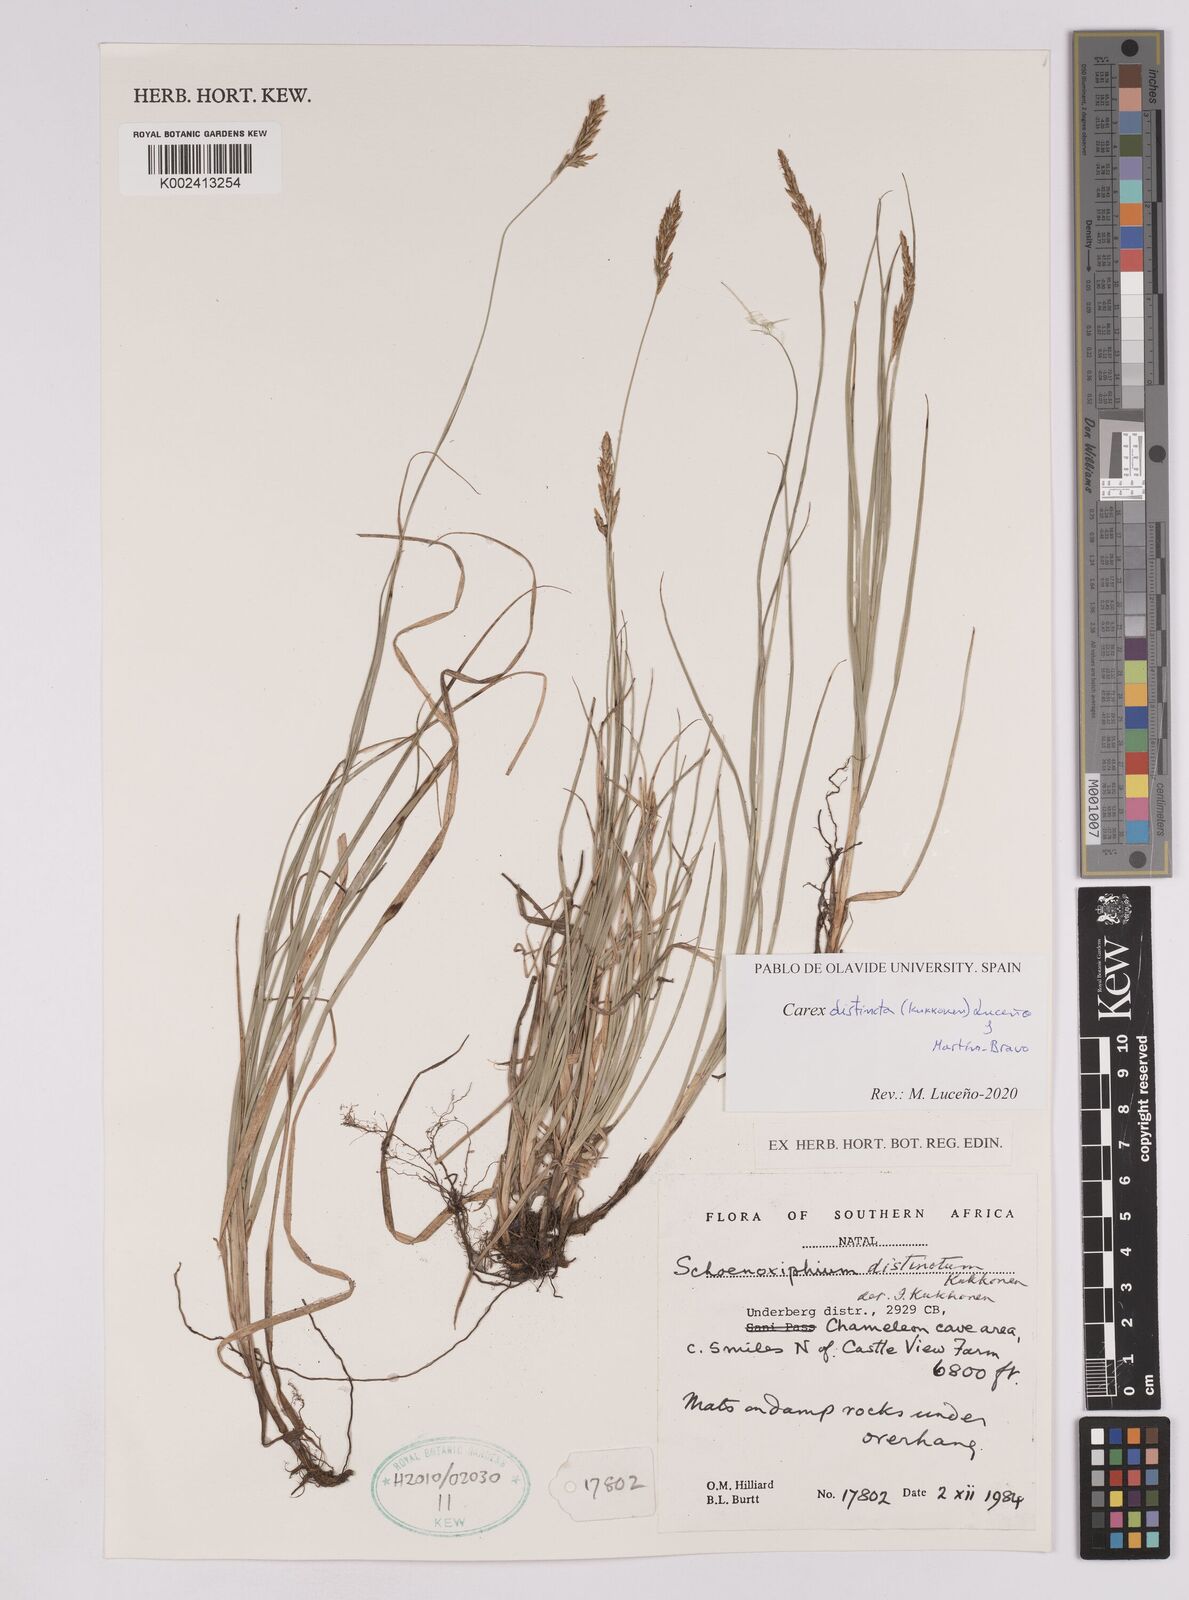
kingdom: Plantae
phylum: Tracheophyta
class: Liliopsida
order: Poales
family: Cyperaceae
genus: Carex
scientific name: Carex distincta
